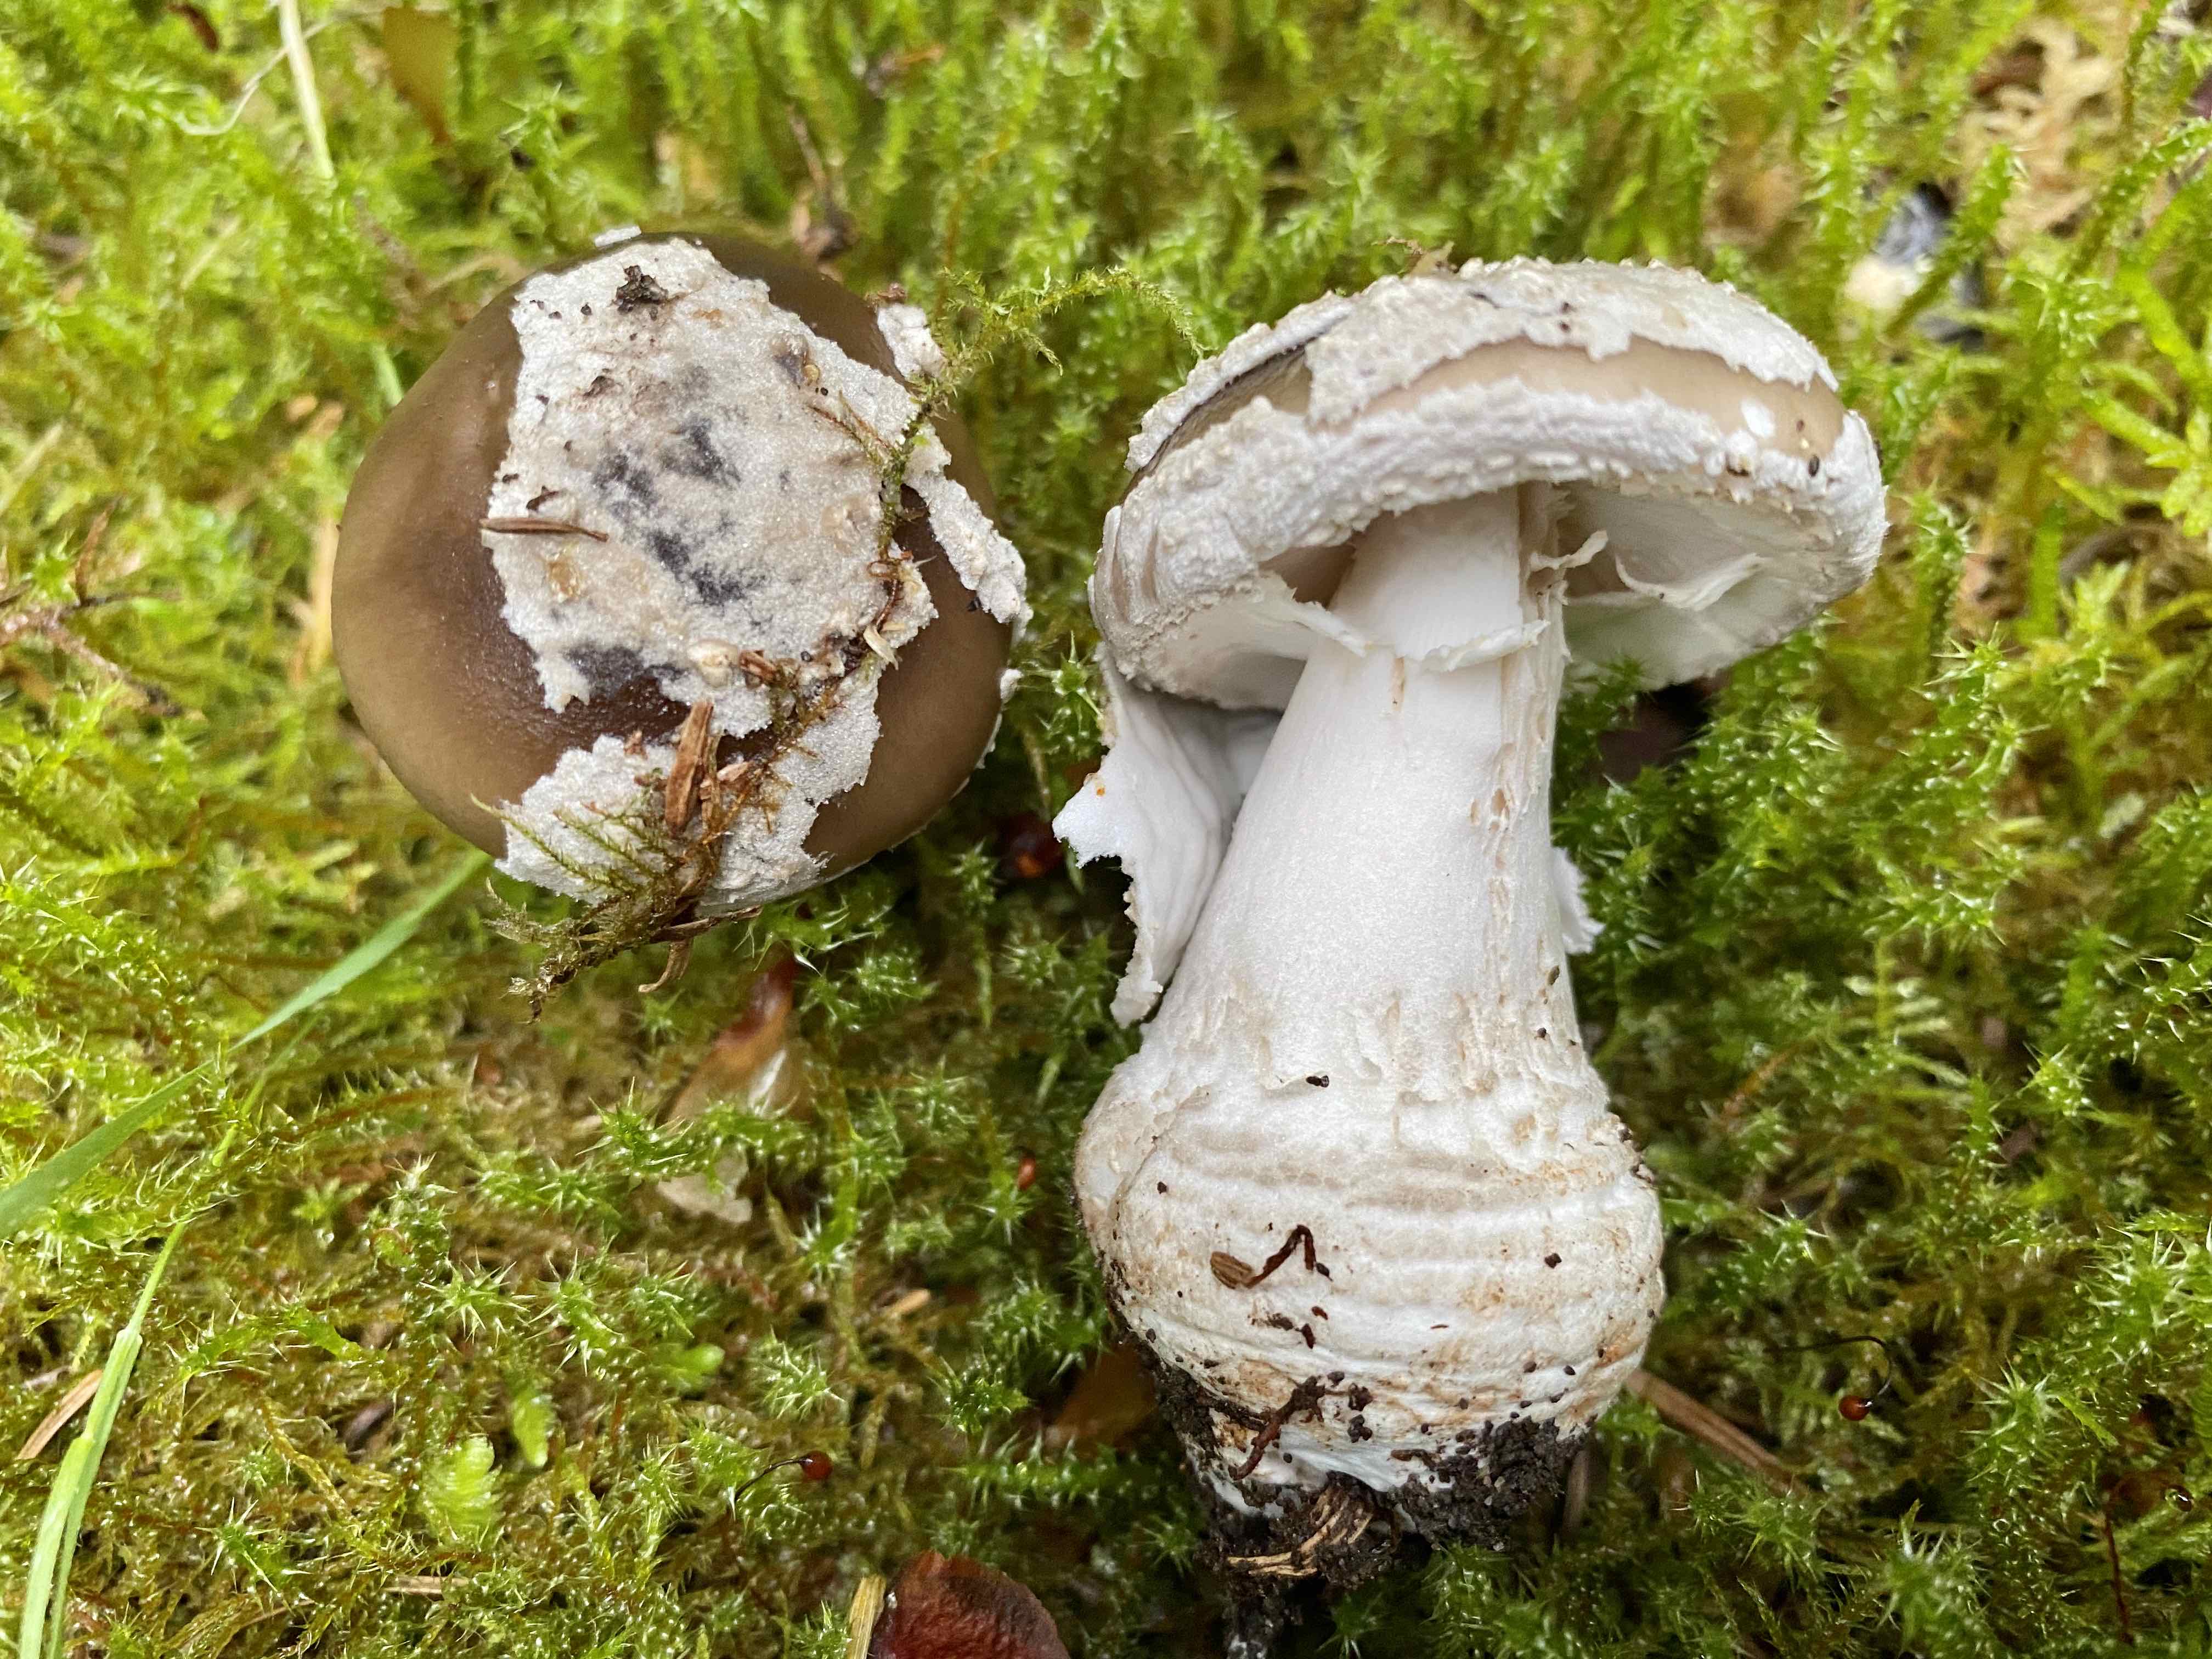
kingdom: Fungi
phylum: Basidiomycota
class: Agaricomycetes
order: Agaricales
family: Amanitaceae
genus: Amanita
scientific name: Amanita
